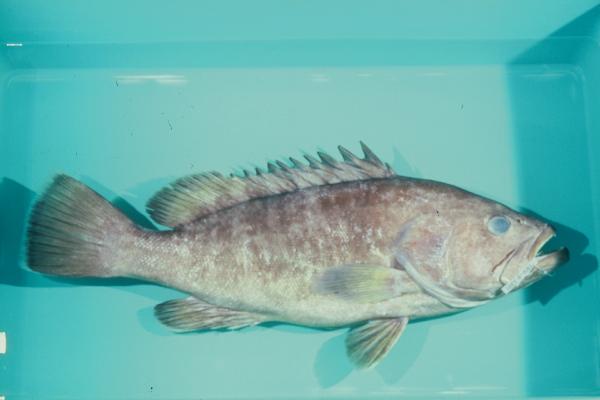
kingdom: Animalia
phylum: Chordata
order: Perciformes
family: Serranidae
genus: Hyporthodus
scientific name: Hyporthodus septemfasciatus
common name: Convict grouper
